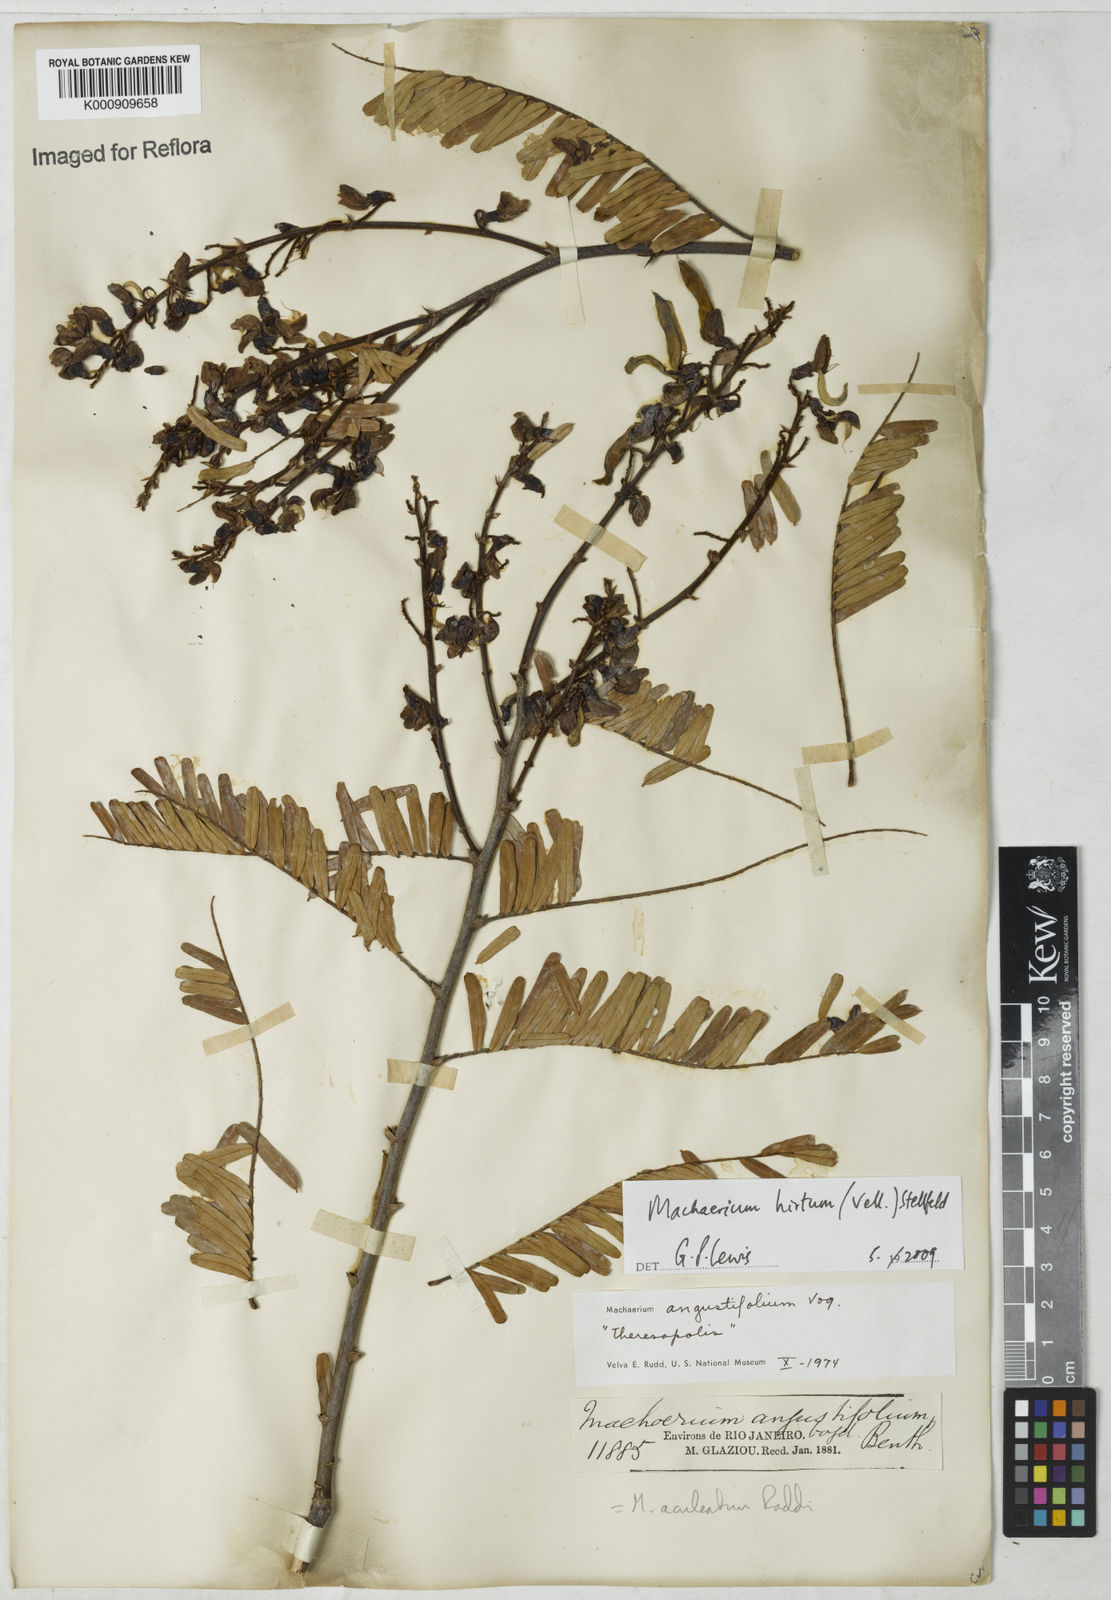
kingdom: Plantae
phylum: Tracheophyta
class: Magnoliopsida
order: Fabales
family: Fabaceae
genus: Machaerium
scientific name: Machaerium hirtum
